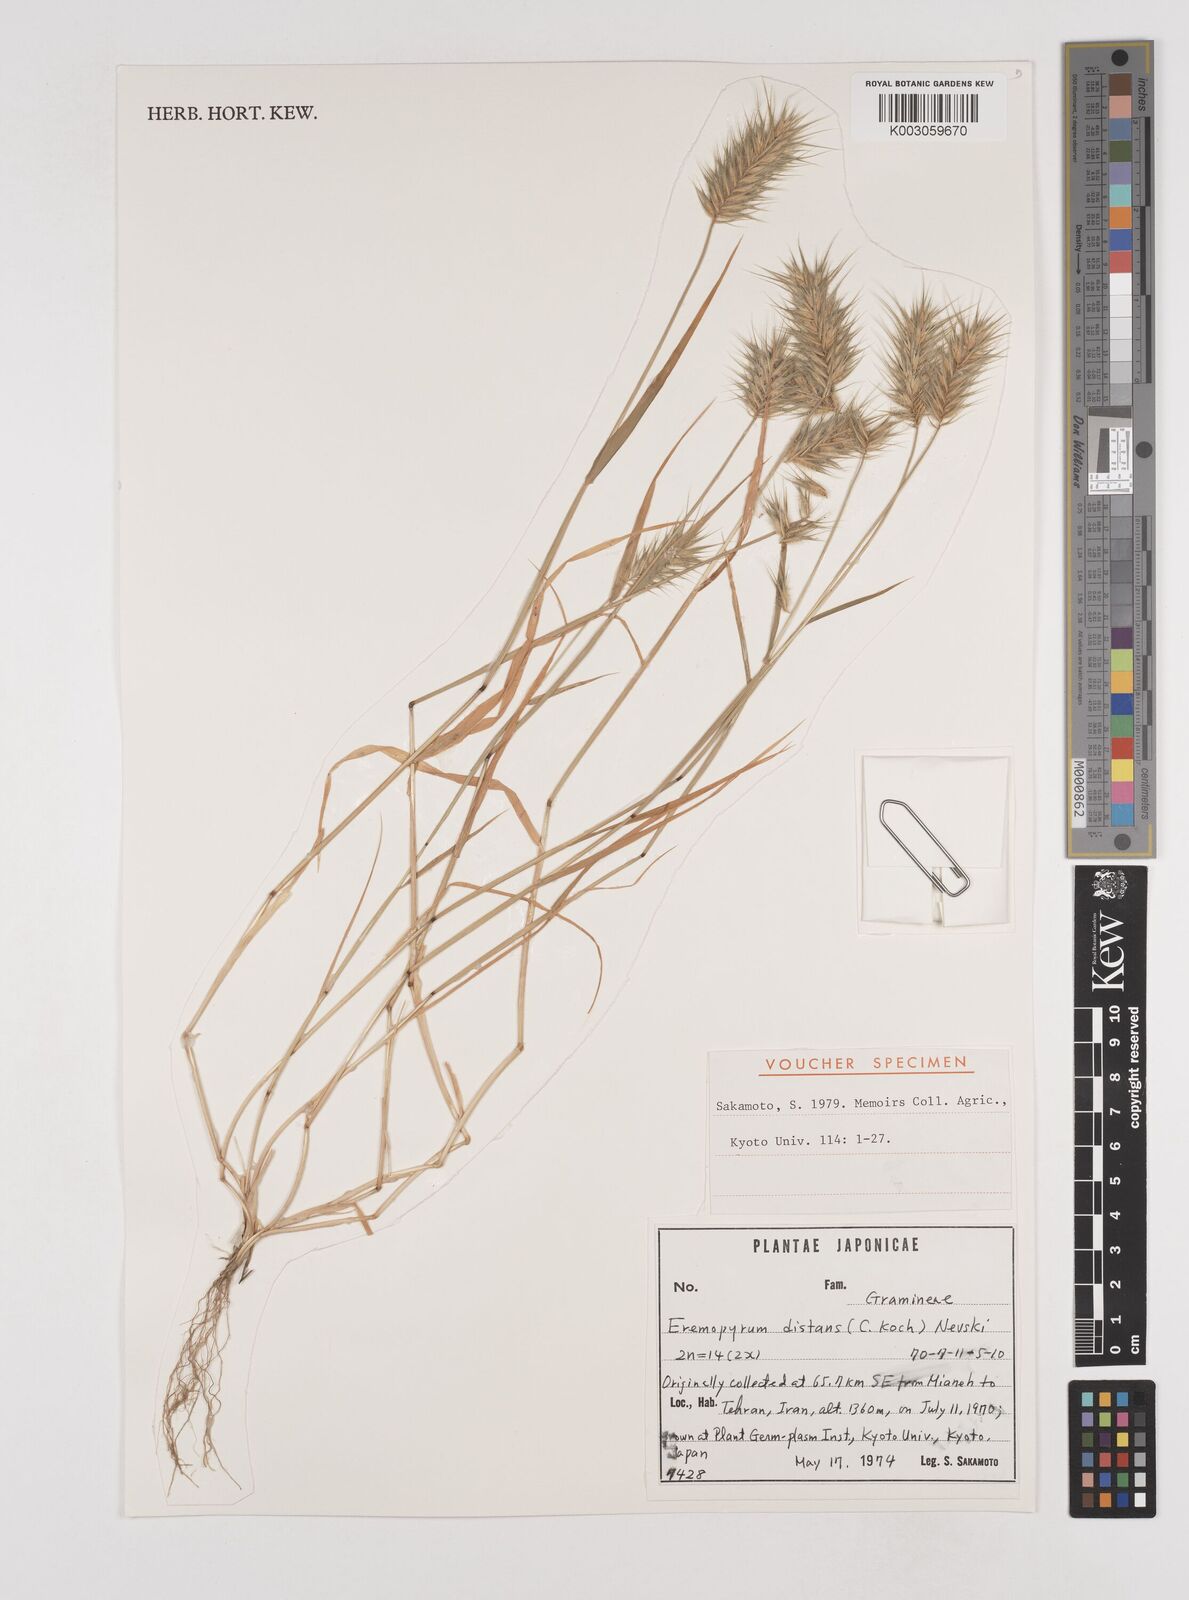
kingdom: Plantae
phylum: Tracheophyta
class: Liliopsida
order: Poales
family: Poaceae
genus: Eremopyrum
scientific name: Eremopyrum distans
